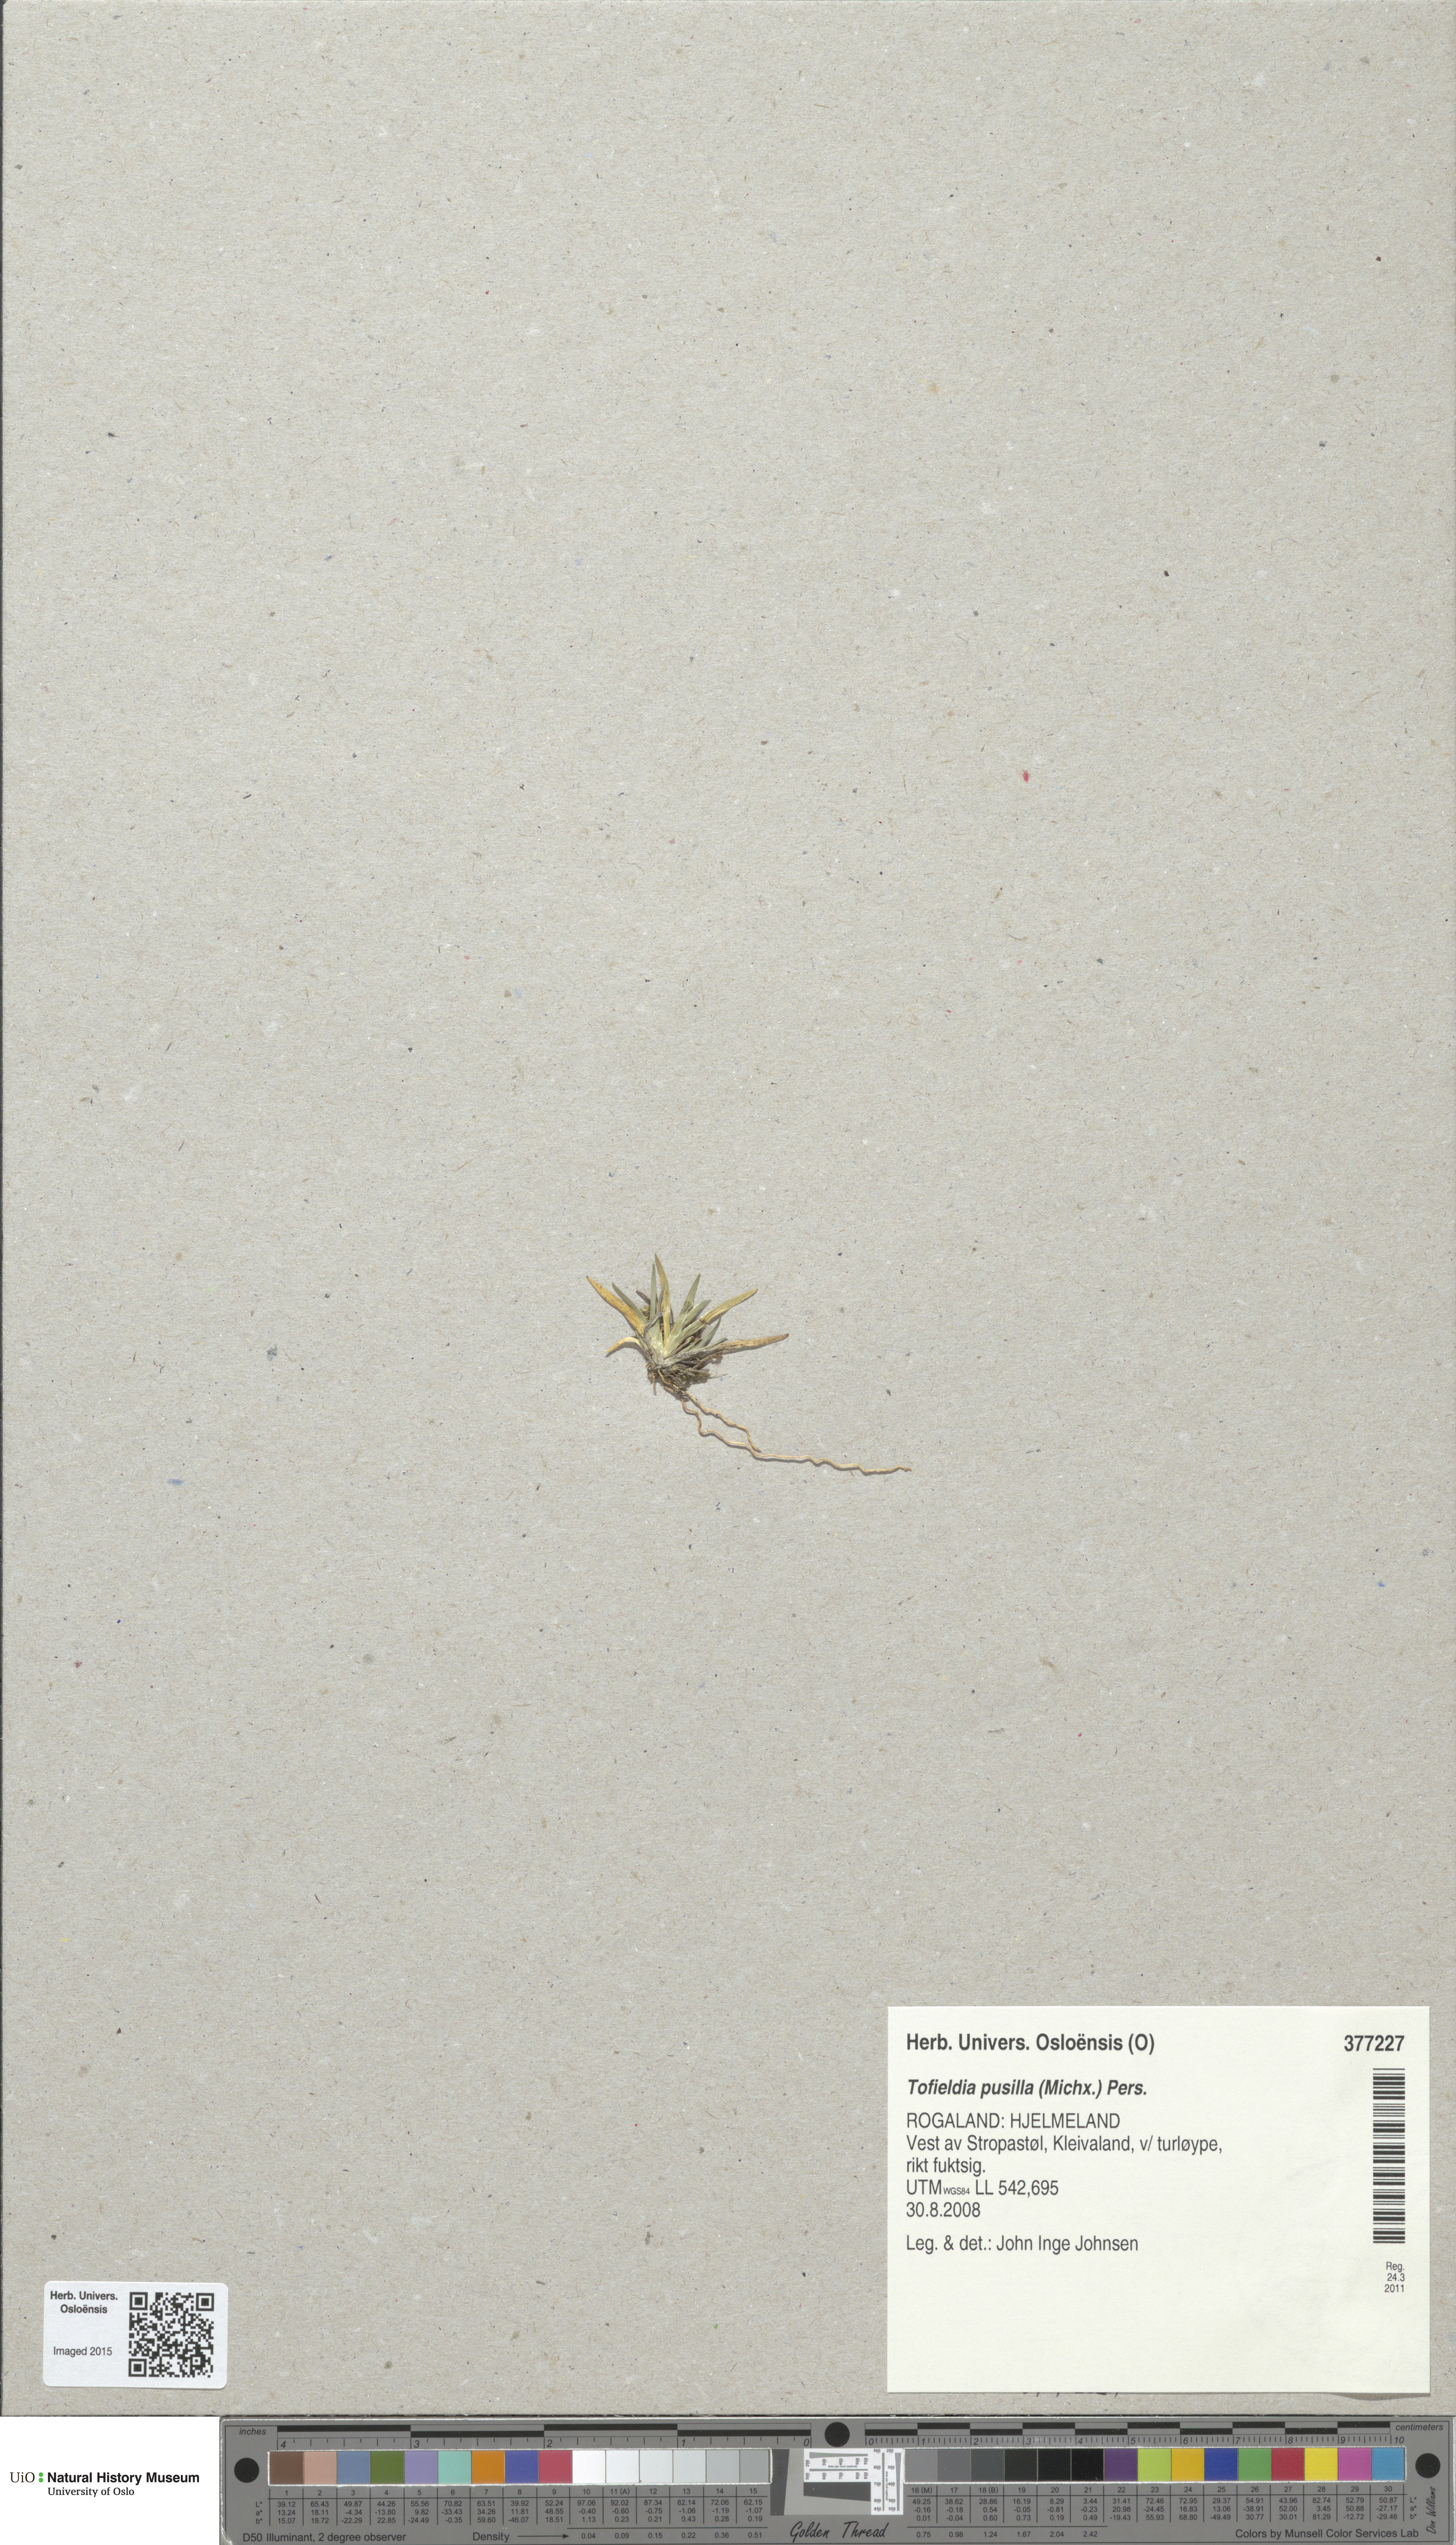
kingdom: Plantae
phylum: Tracheophyta
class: Liliopsida
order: Alismatales
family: Tofieldiaceae
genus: Tofieldia
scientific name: Tofieldia pusilla
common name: Scottish false asphodel
